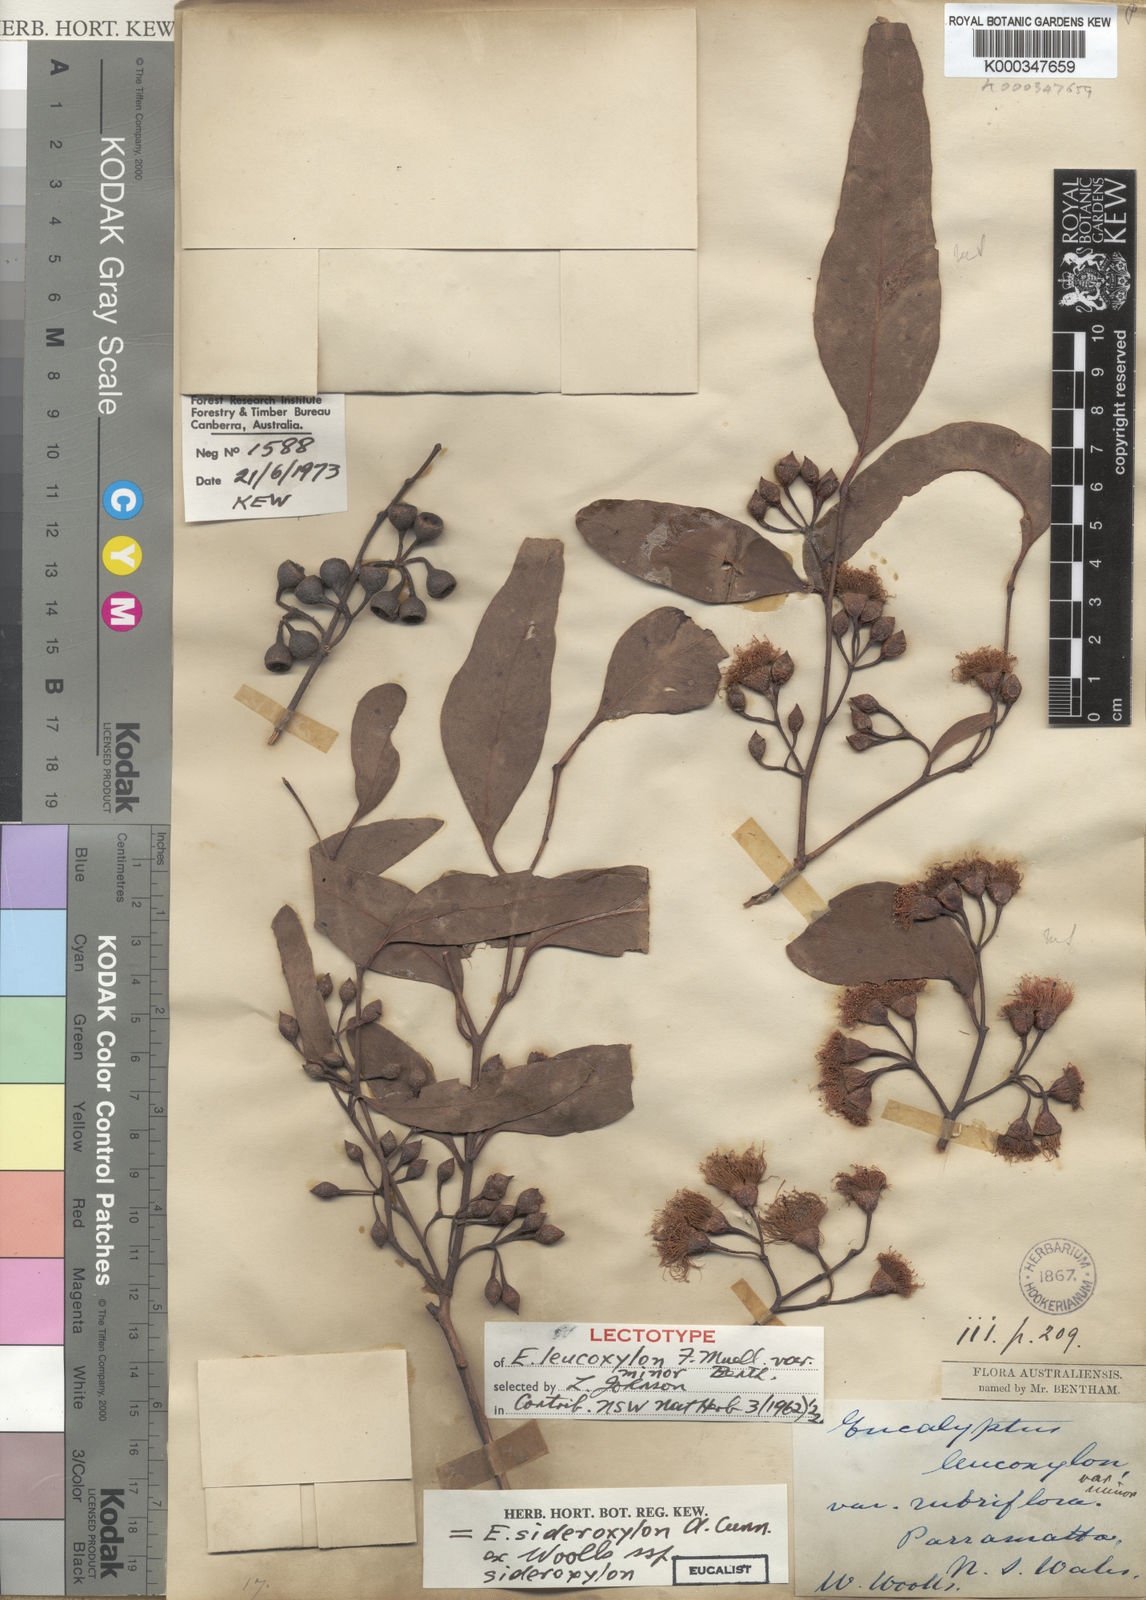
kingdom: Plantae
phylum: Tracheophyta
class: Magnoliopsida
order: Myrtales
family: Myrtaceae
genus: Eucalyptus
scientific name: Eucalyptus sideroxylon
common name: Red ironbark
